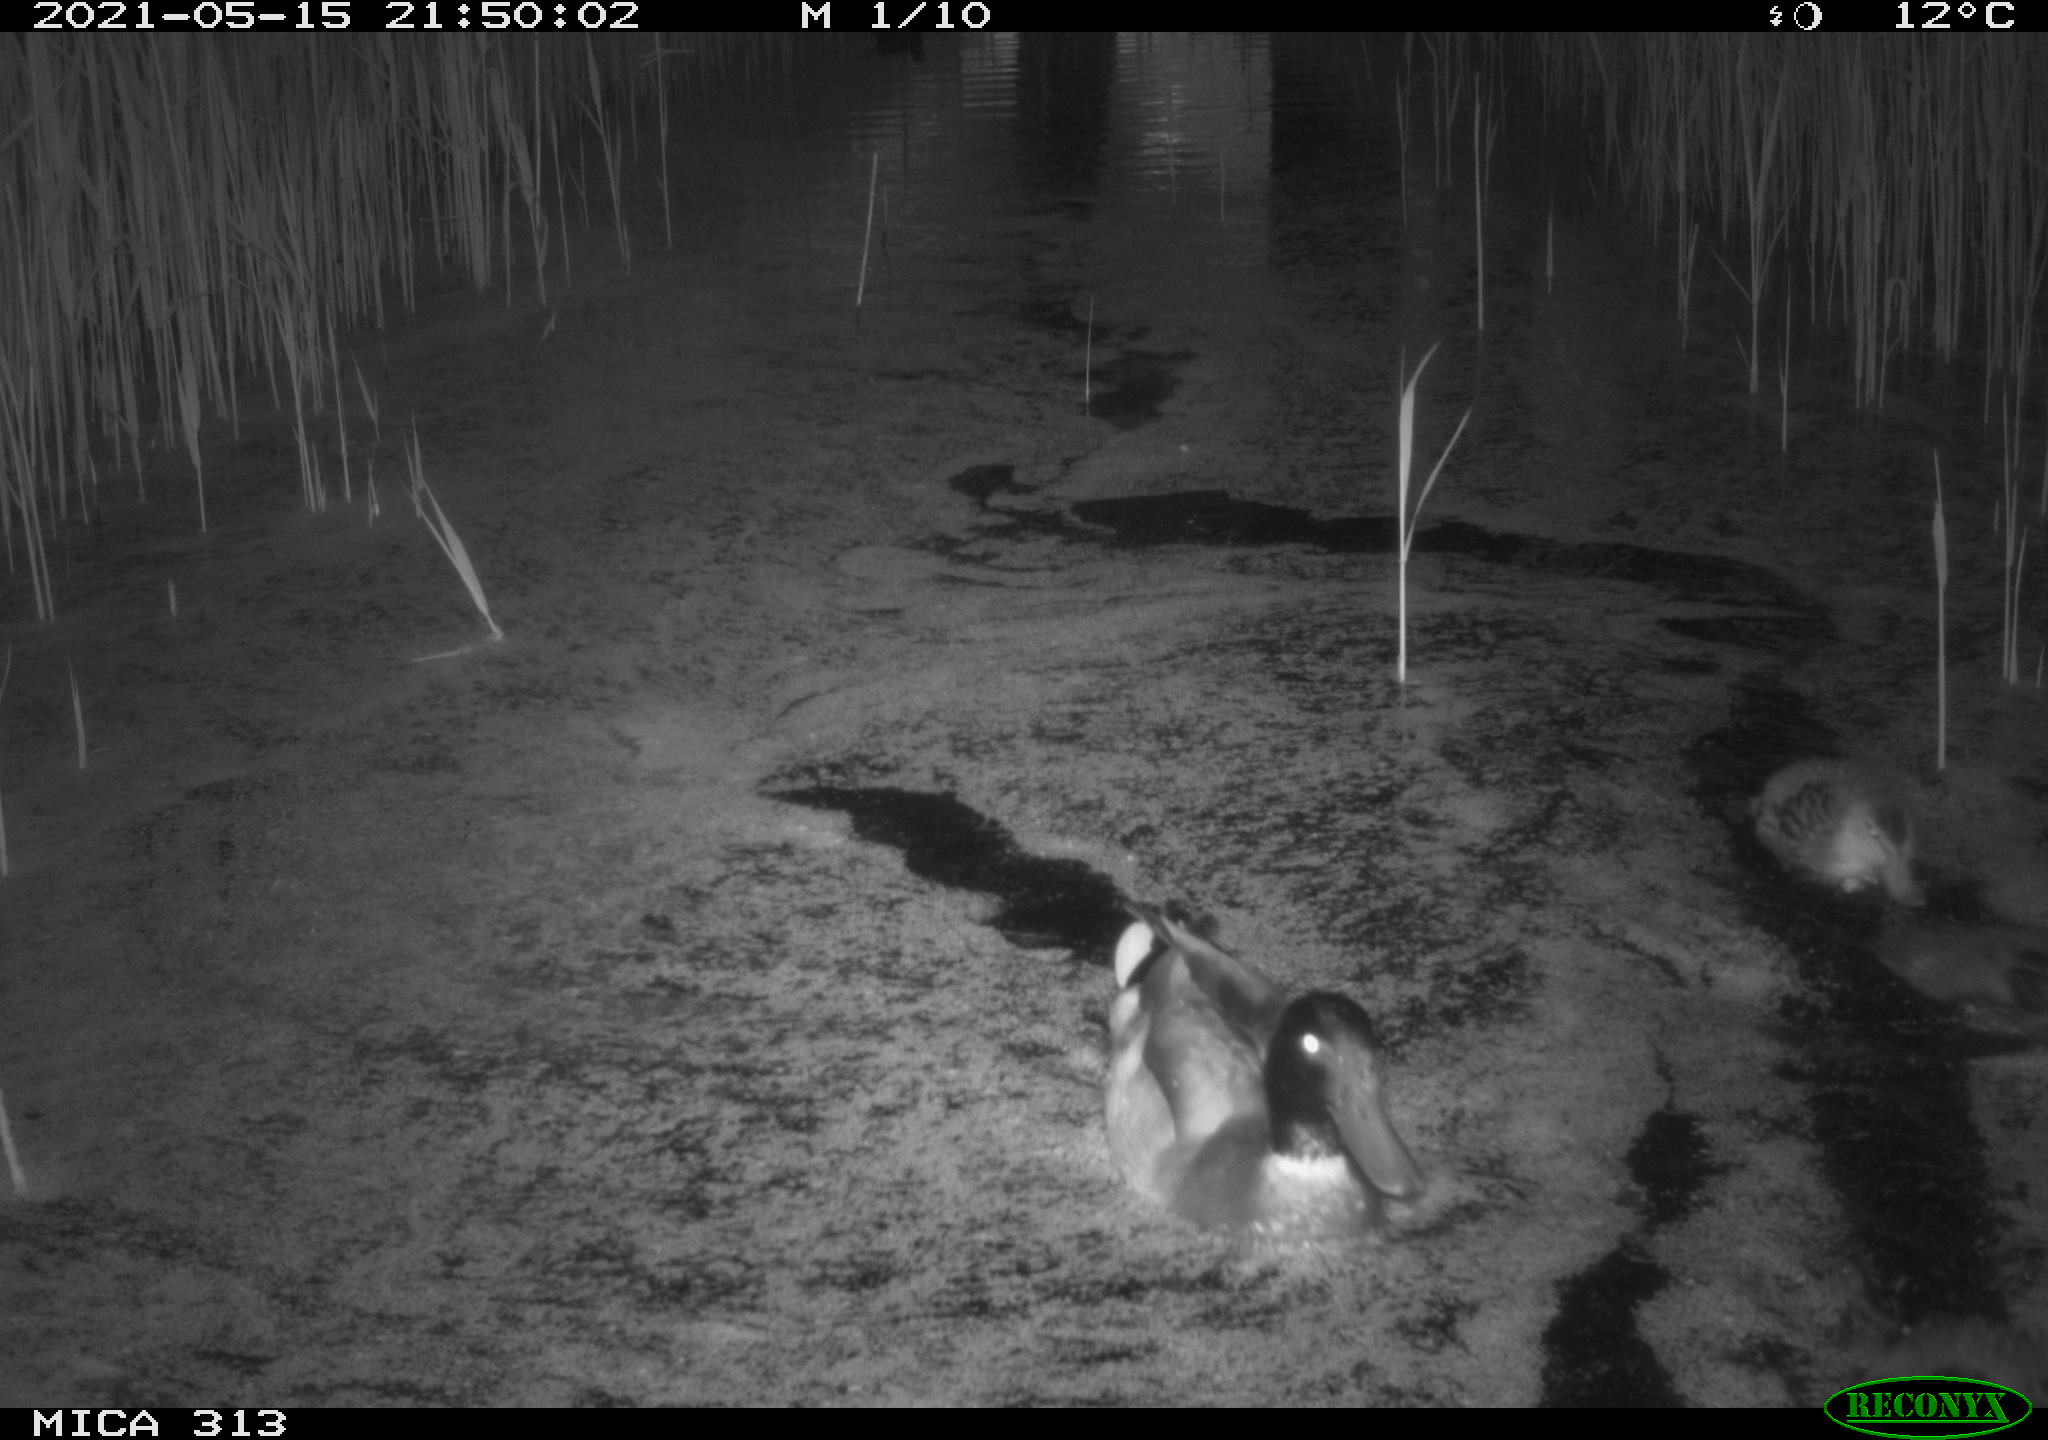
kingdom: Animalia
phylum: Chordata
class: Aves
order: Anseriformes
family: Anatidae
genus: Anas
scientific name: Anas platyrhynchos
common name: Mallard
